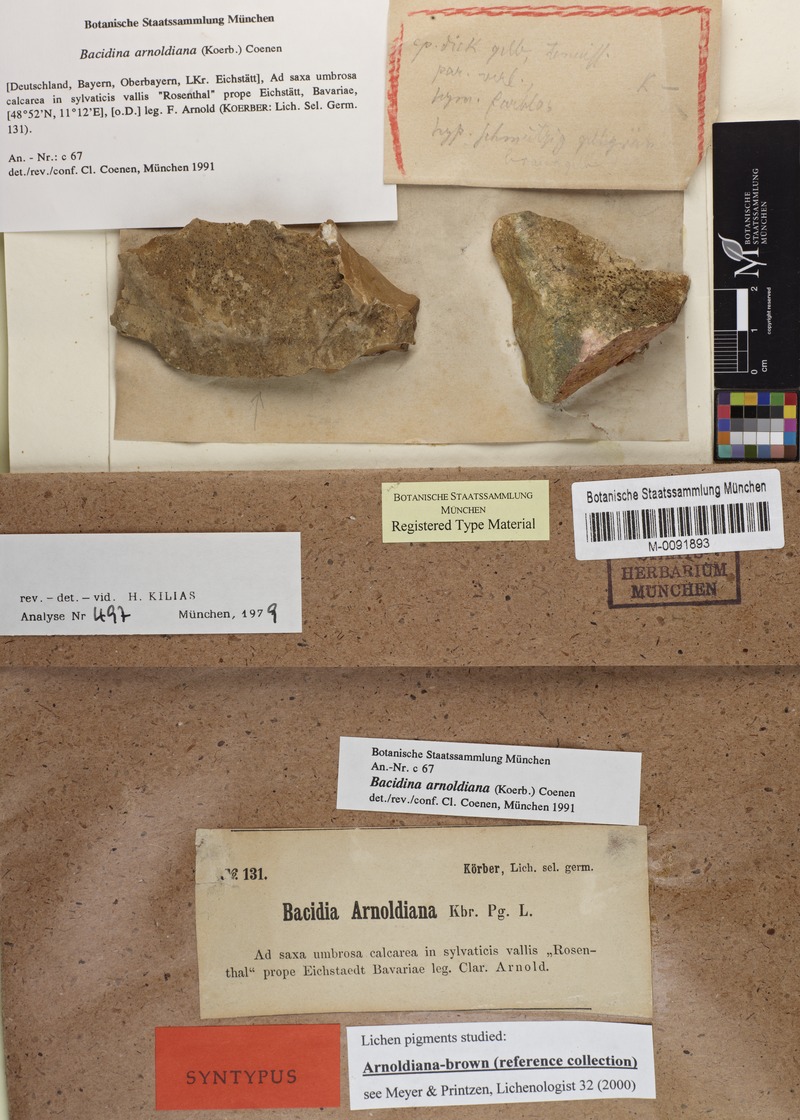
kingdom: Fungi
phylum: Ascomycota
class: Lecanoromycetes
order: Lecanorales
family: Ramalinaceae
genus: Bacidina
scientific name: Bacidina arnoldiana
